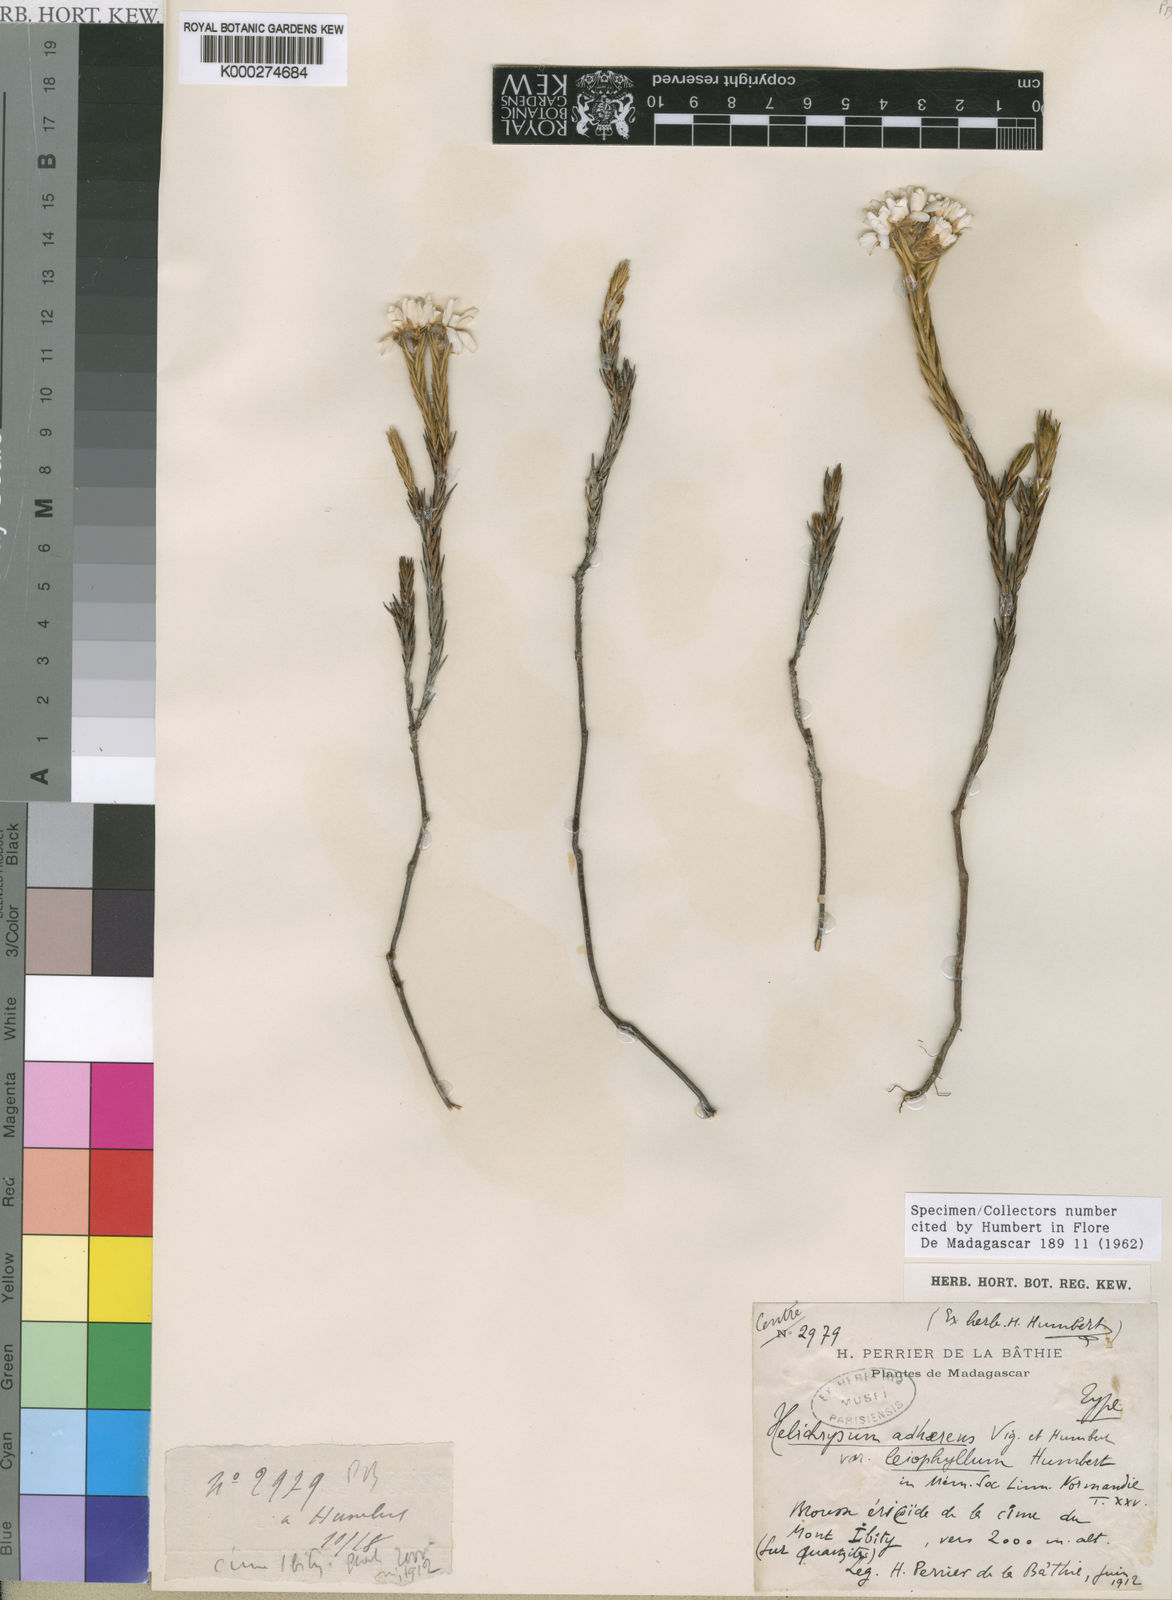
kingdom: Plantae
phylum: Tracheophyta
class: Magnoliopsida
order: Asterales
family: Asteraceae
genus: Aphelexis
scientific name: Aphelexis adhaerens
